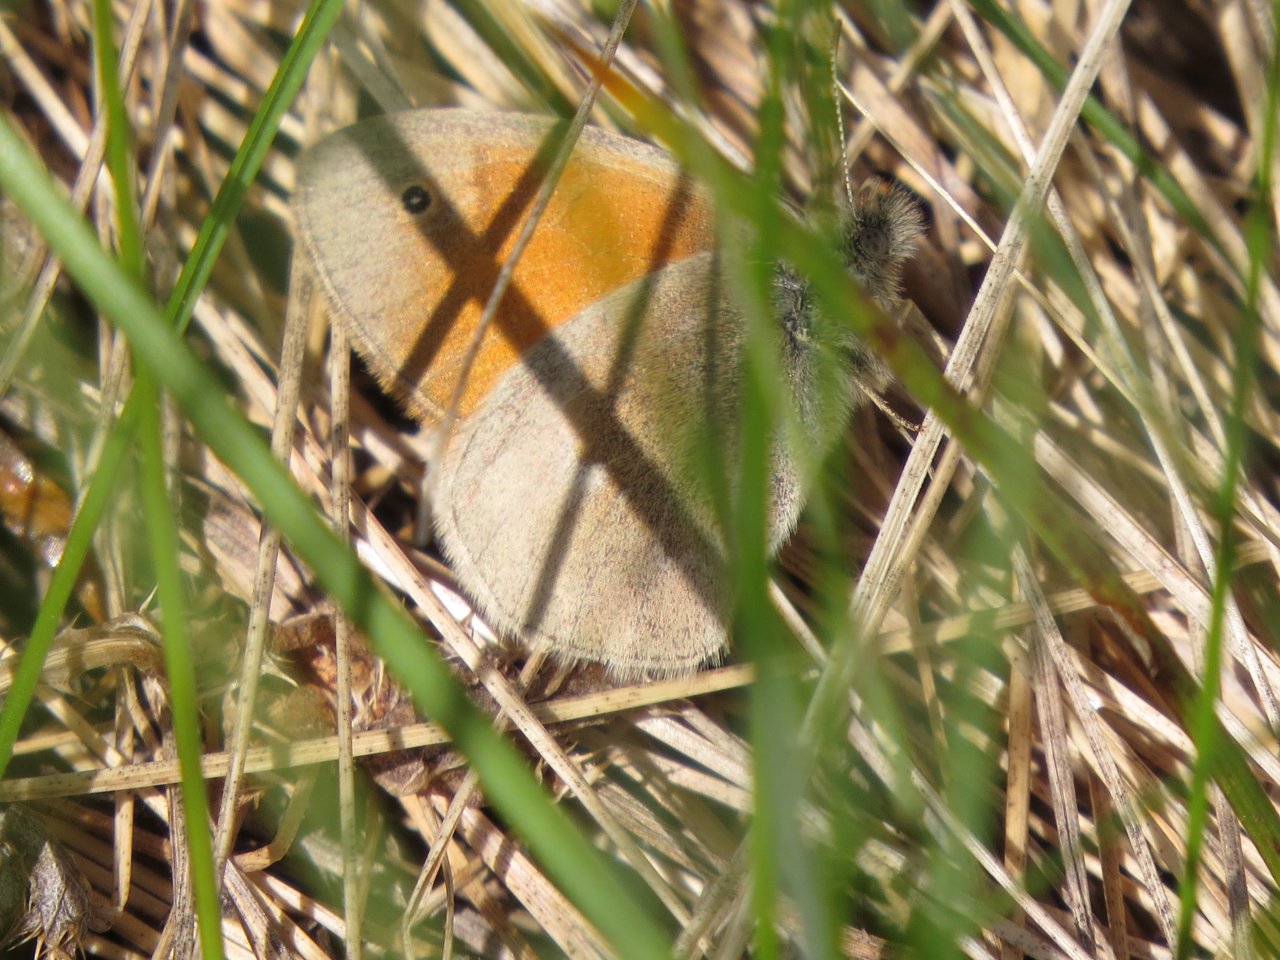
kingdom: Animalia
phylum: Arthropoda
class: Insecta
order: Lepidoptera
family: Nymphalidae
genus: Coenonympha
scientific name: Coenonympha tullia
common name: Large Heath
